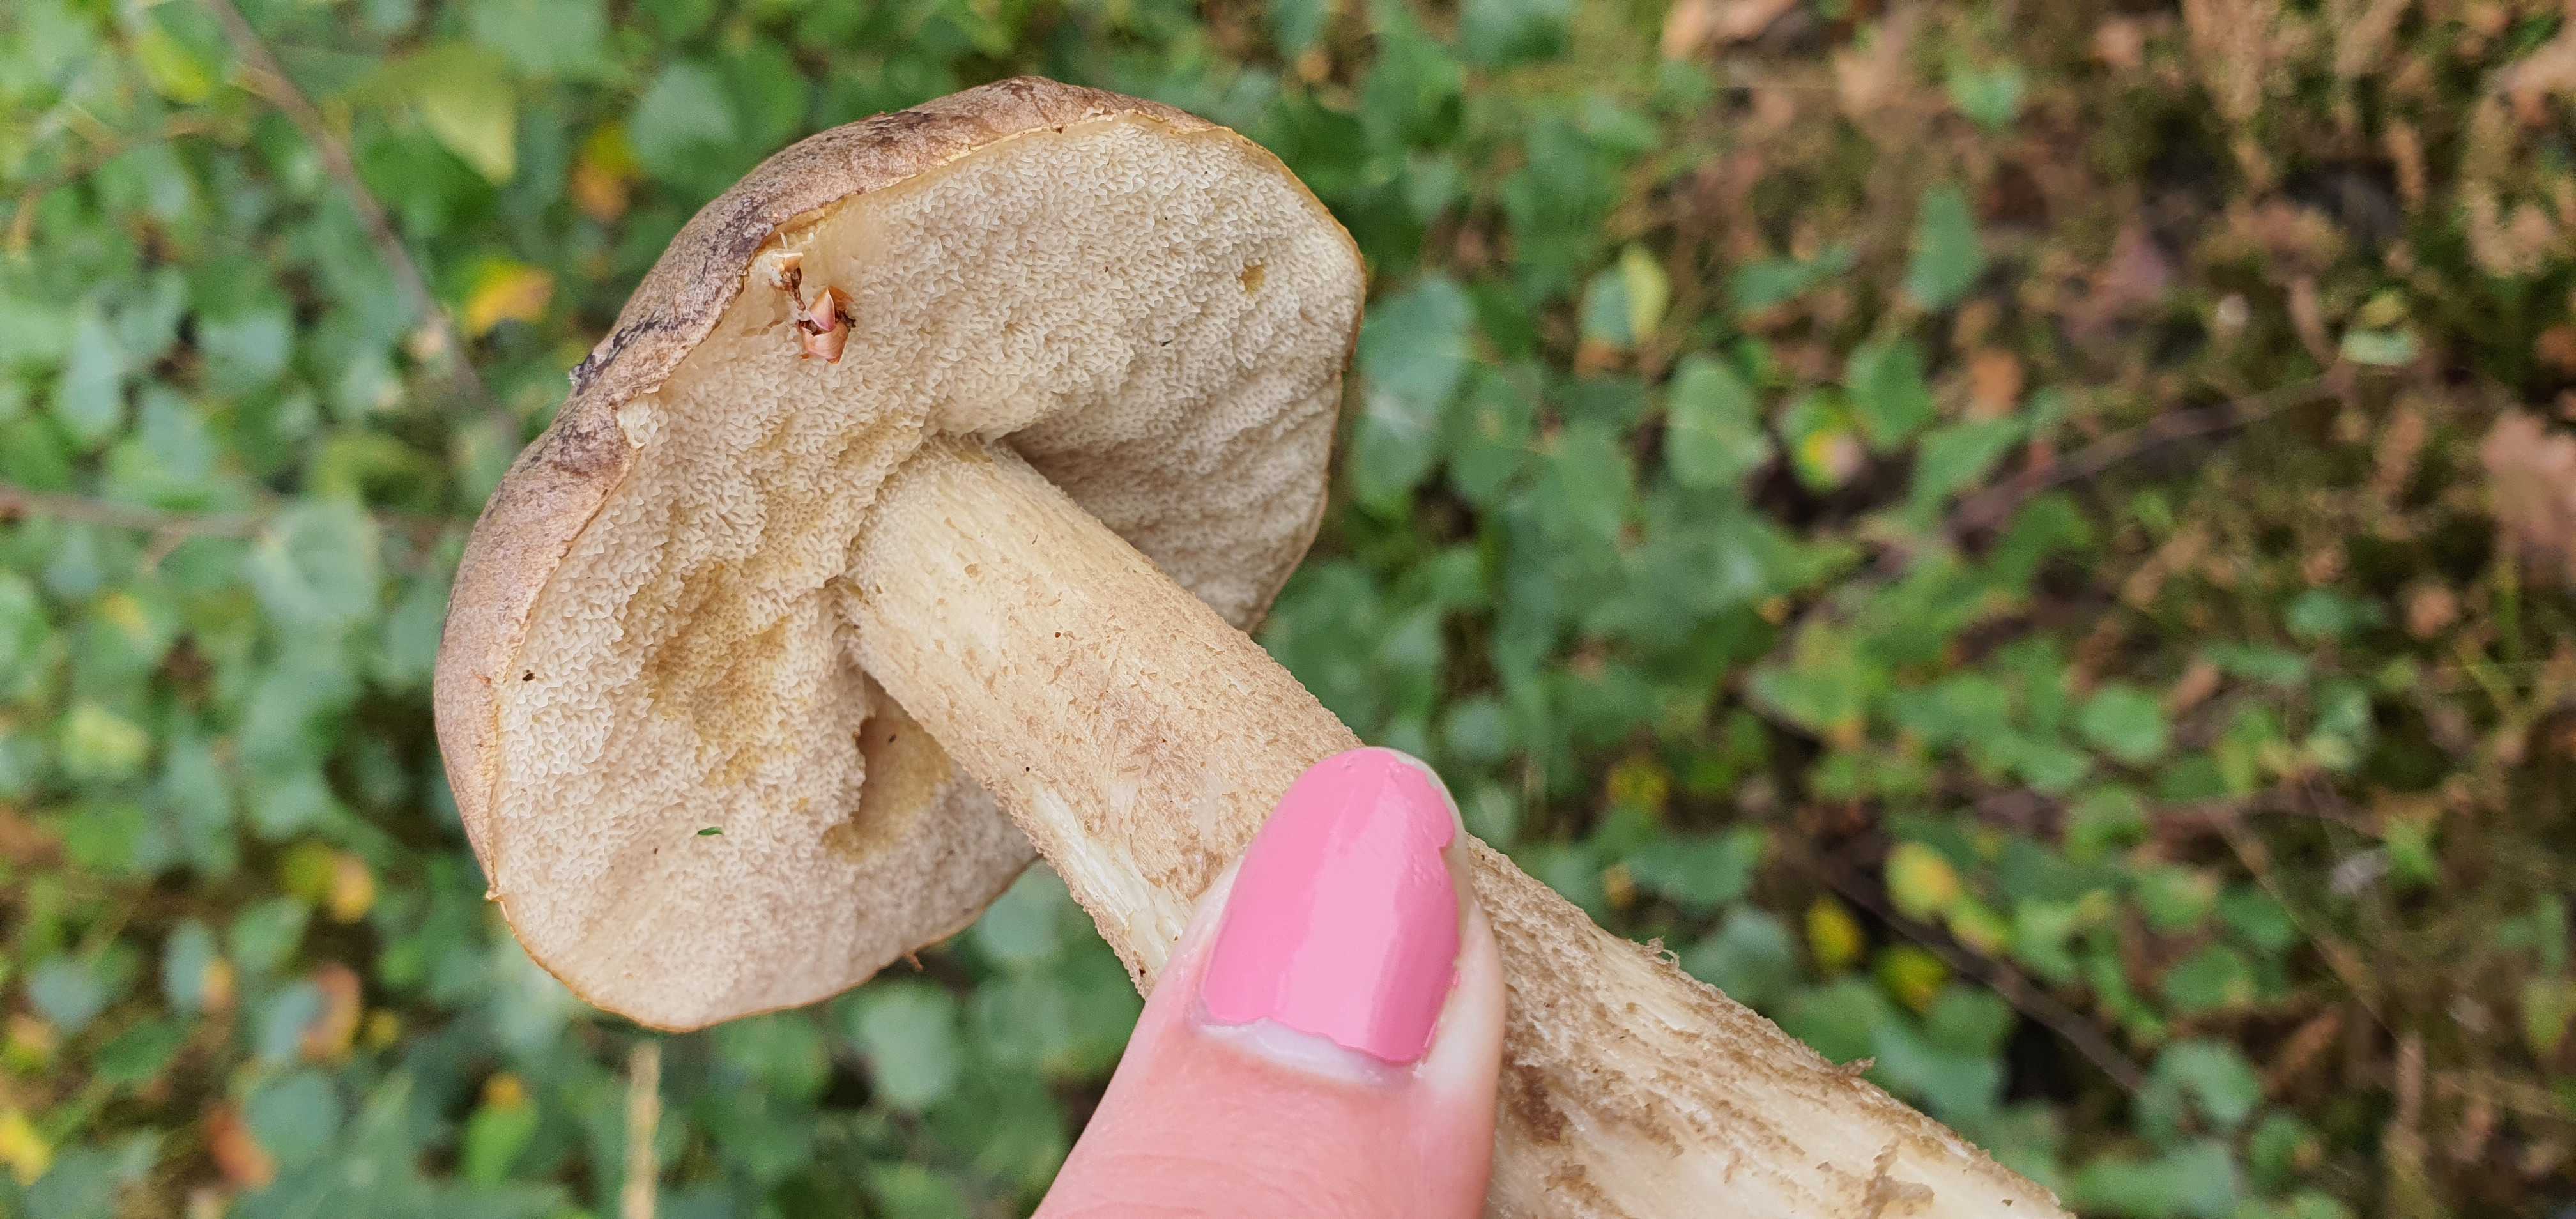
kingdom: Fungi
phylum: Basidiomycota
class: Agaricomycetes
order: Boletales
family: Boletaceae
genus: Leccinum
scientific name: Leccinum
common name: skælrørhat
